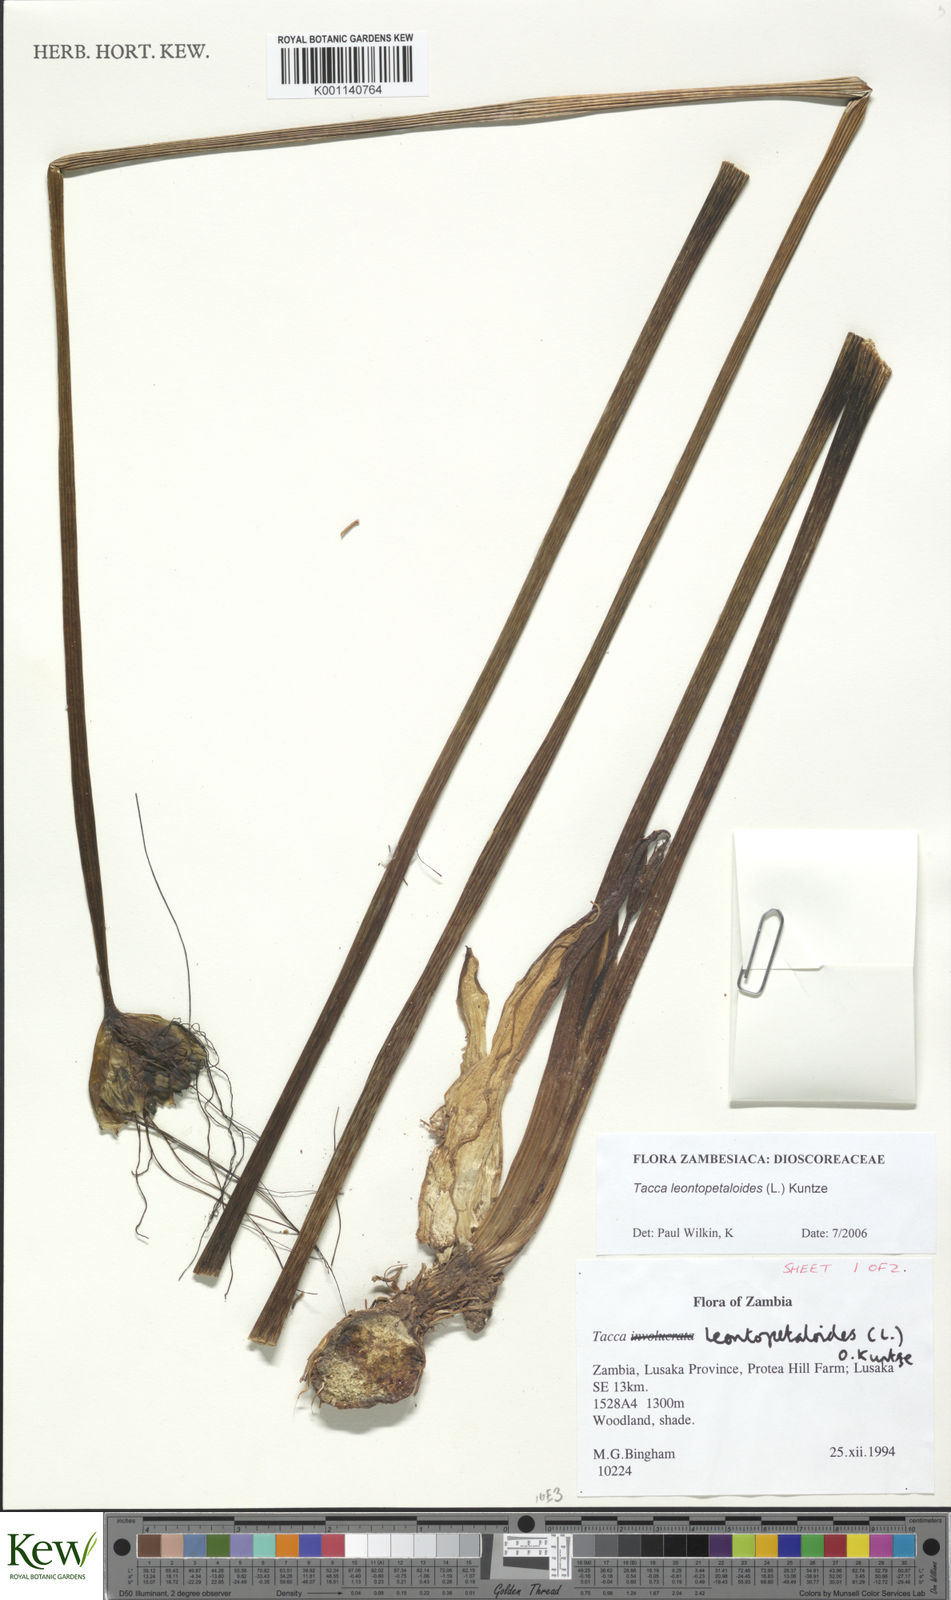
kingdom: Plantae
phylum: Tracheophyta
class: Liliopsida
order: Dioscoreales
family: Dioscoreaceae
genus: Tacca
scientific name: Tacca leontopetaloides
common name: Arrowroot
